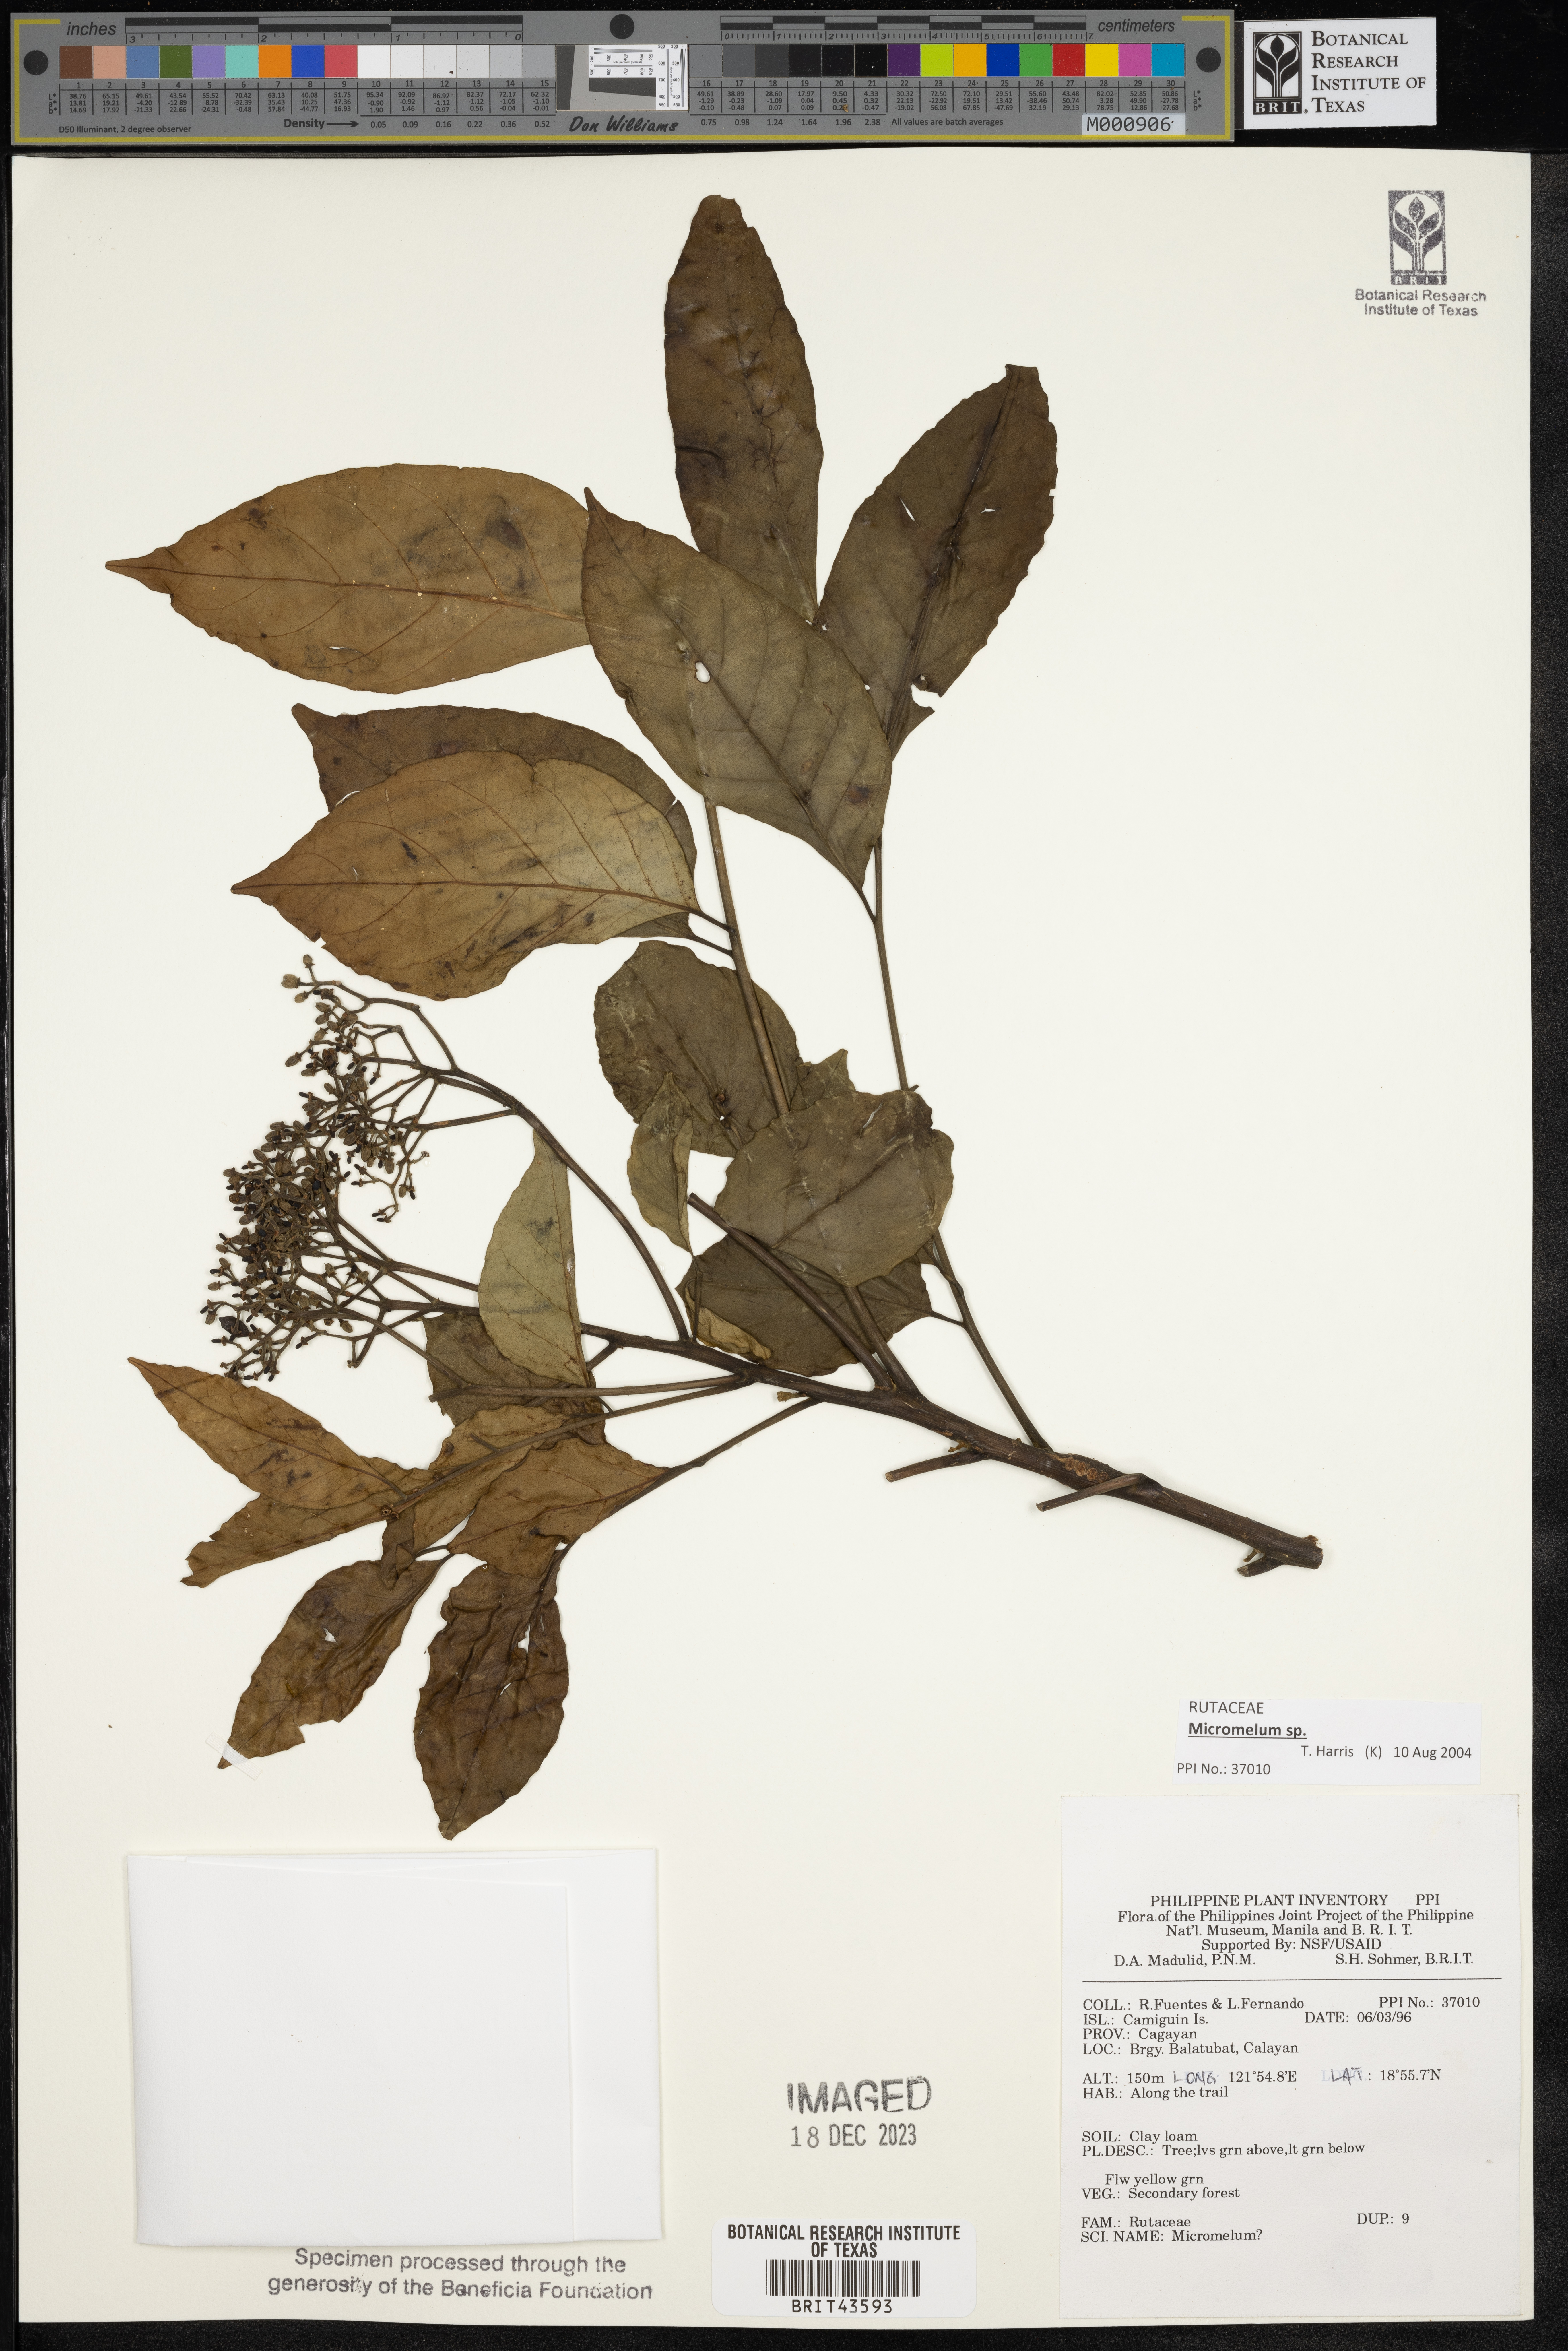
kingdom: Plantae
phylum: Tracheophyta
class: Magnoliopsida
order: Sapindales
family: Rutaceae
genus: Micromelum
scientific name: Micromelum
